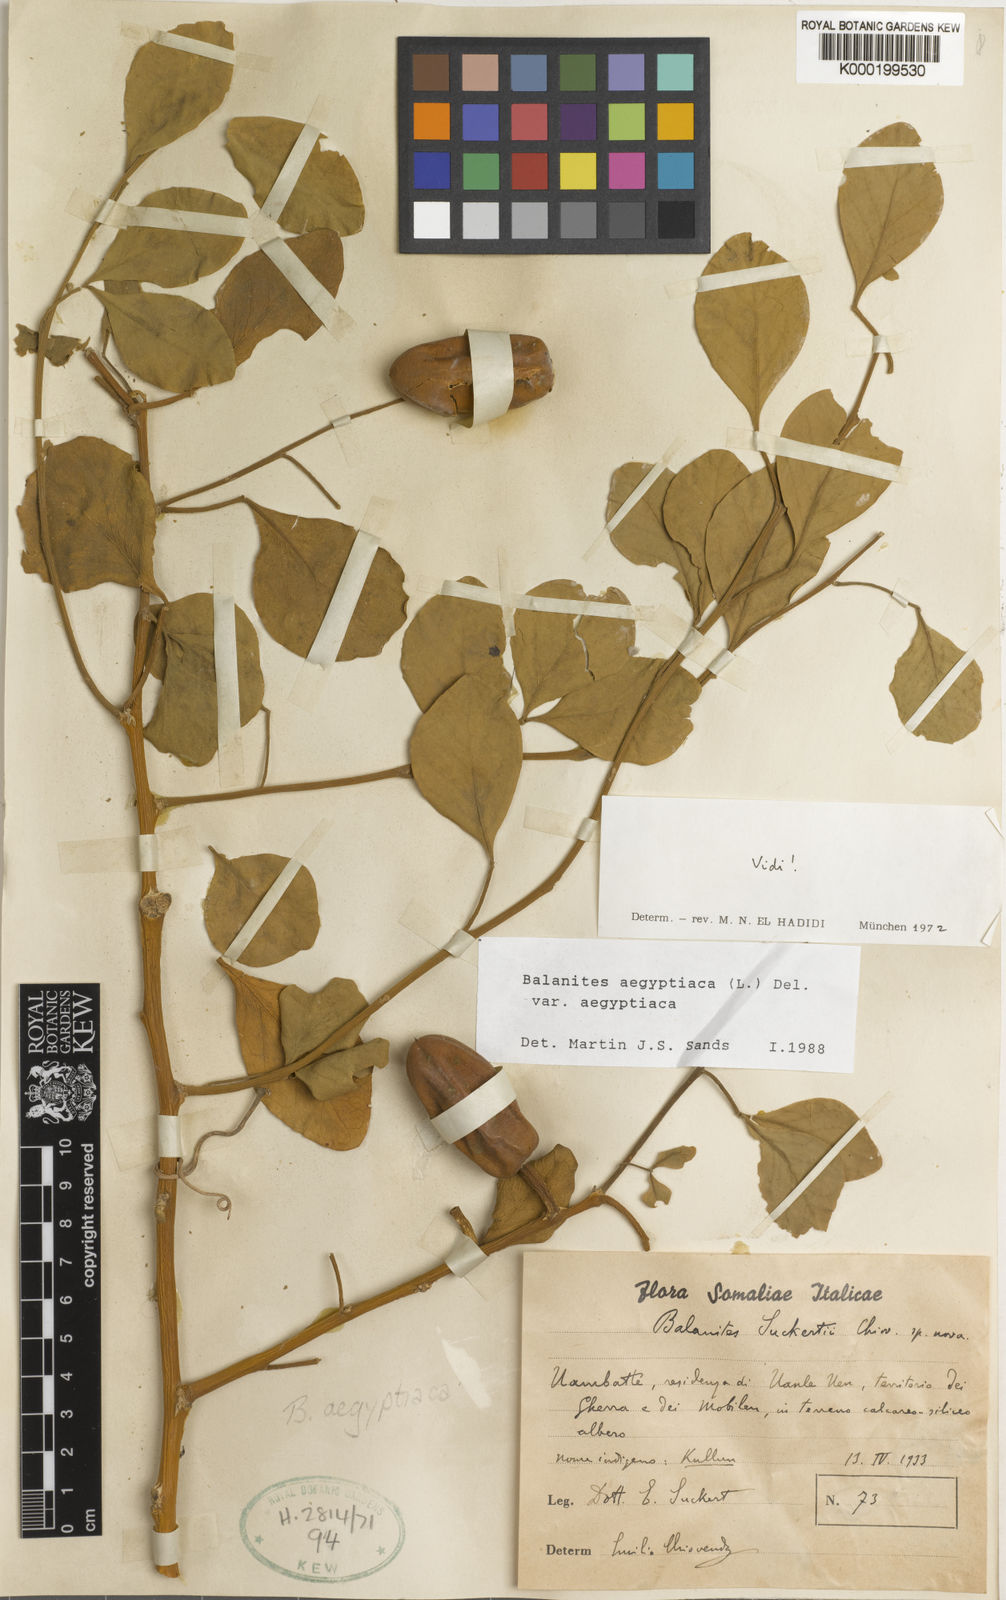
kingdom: Plantae
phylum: Tracheophyta
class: Magnoliopsida
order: Zygophyllales
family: Zygophyllaceae
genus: Balanites
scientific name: Balanites aegyptiaca
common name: Balanites
